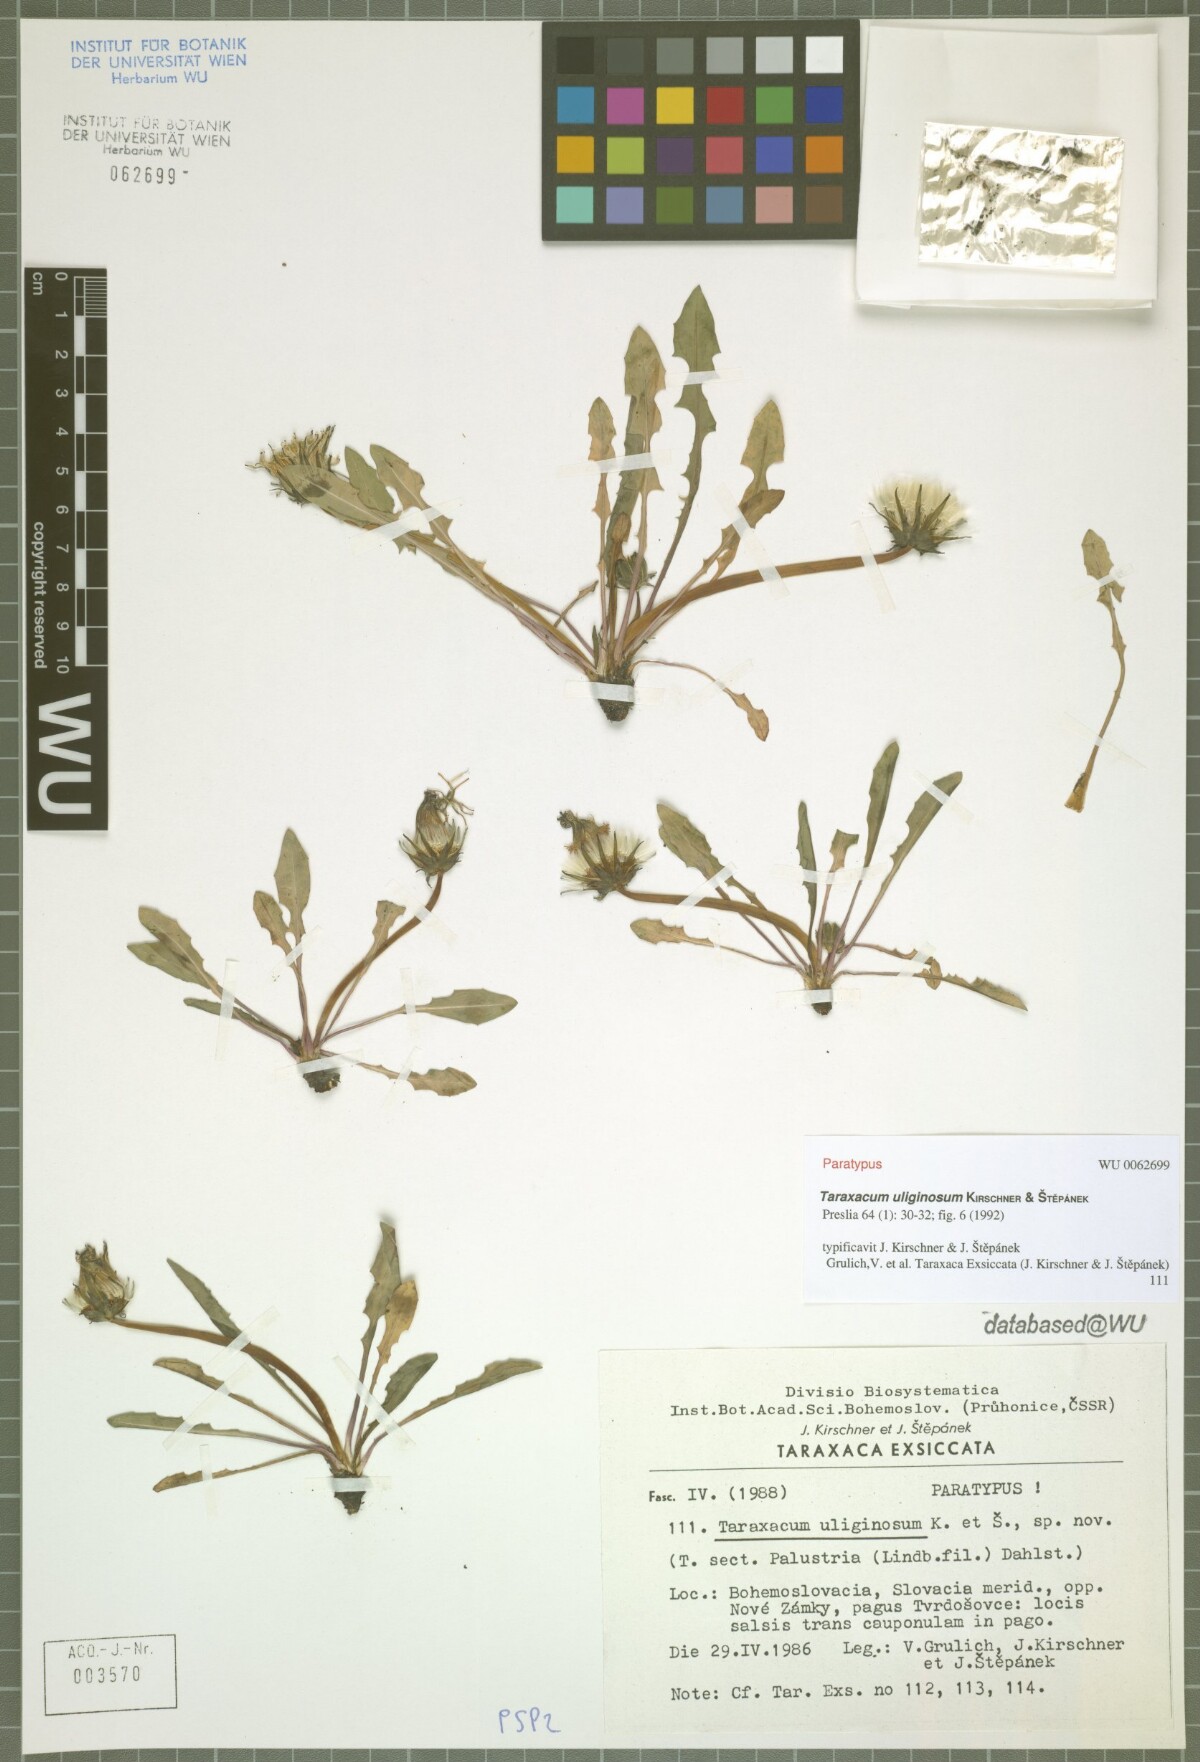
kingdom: Plantae
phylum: Tracheophyta
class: Magnoliopsida
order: Asterales
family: Asteraceae
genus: Taraxacum
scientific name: Taraxacum uliginosum
